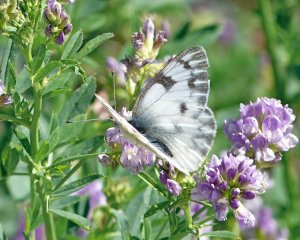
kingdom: Animalia
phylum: Arthropoda
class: Insecta
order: Lepidoptera
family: Pieridae
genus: Pontia
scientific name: Pontia occidentalis
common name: Western White
